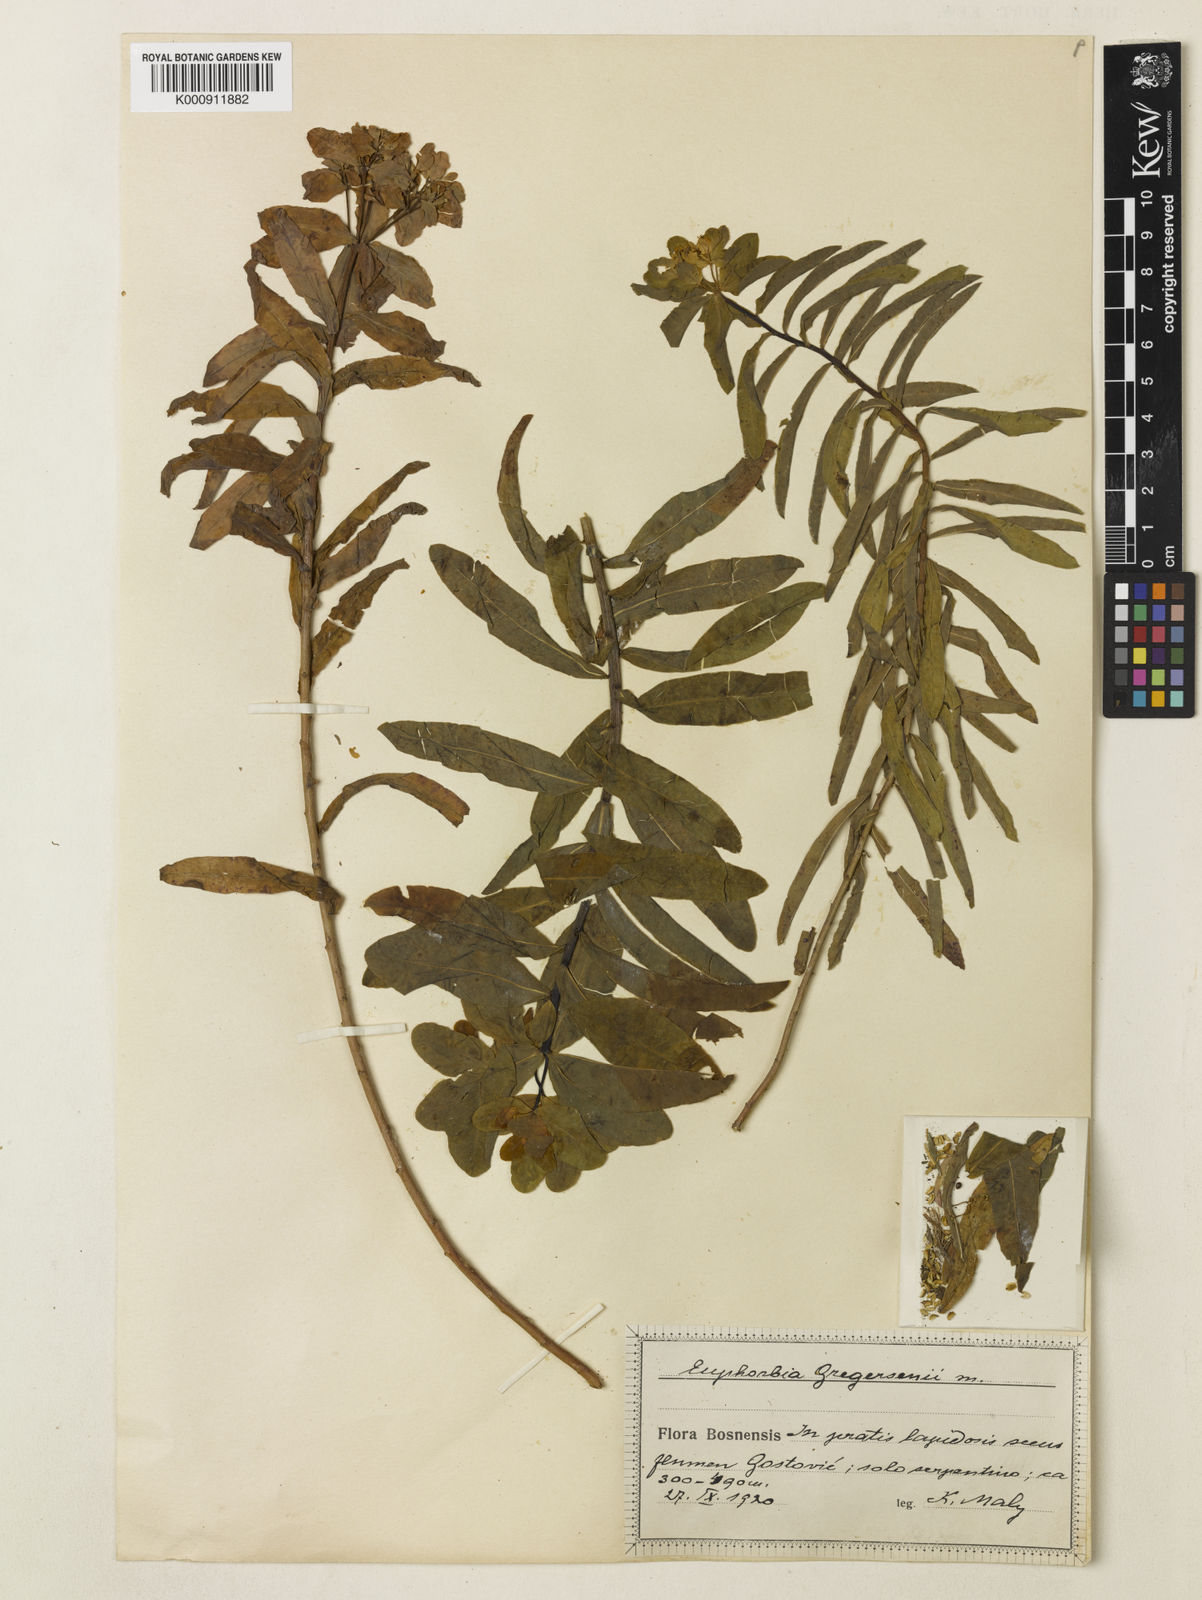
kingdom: Plantae
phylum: Tracheophyta
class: Magnoliopsida
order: Malpighiales
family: Euphorbiaceae
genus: Euphorbia
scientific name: Euphorbia
